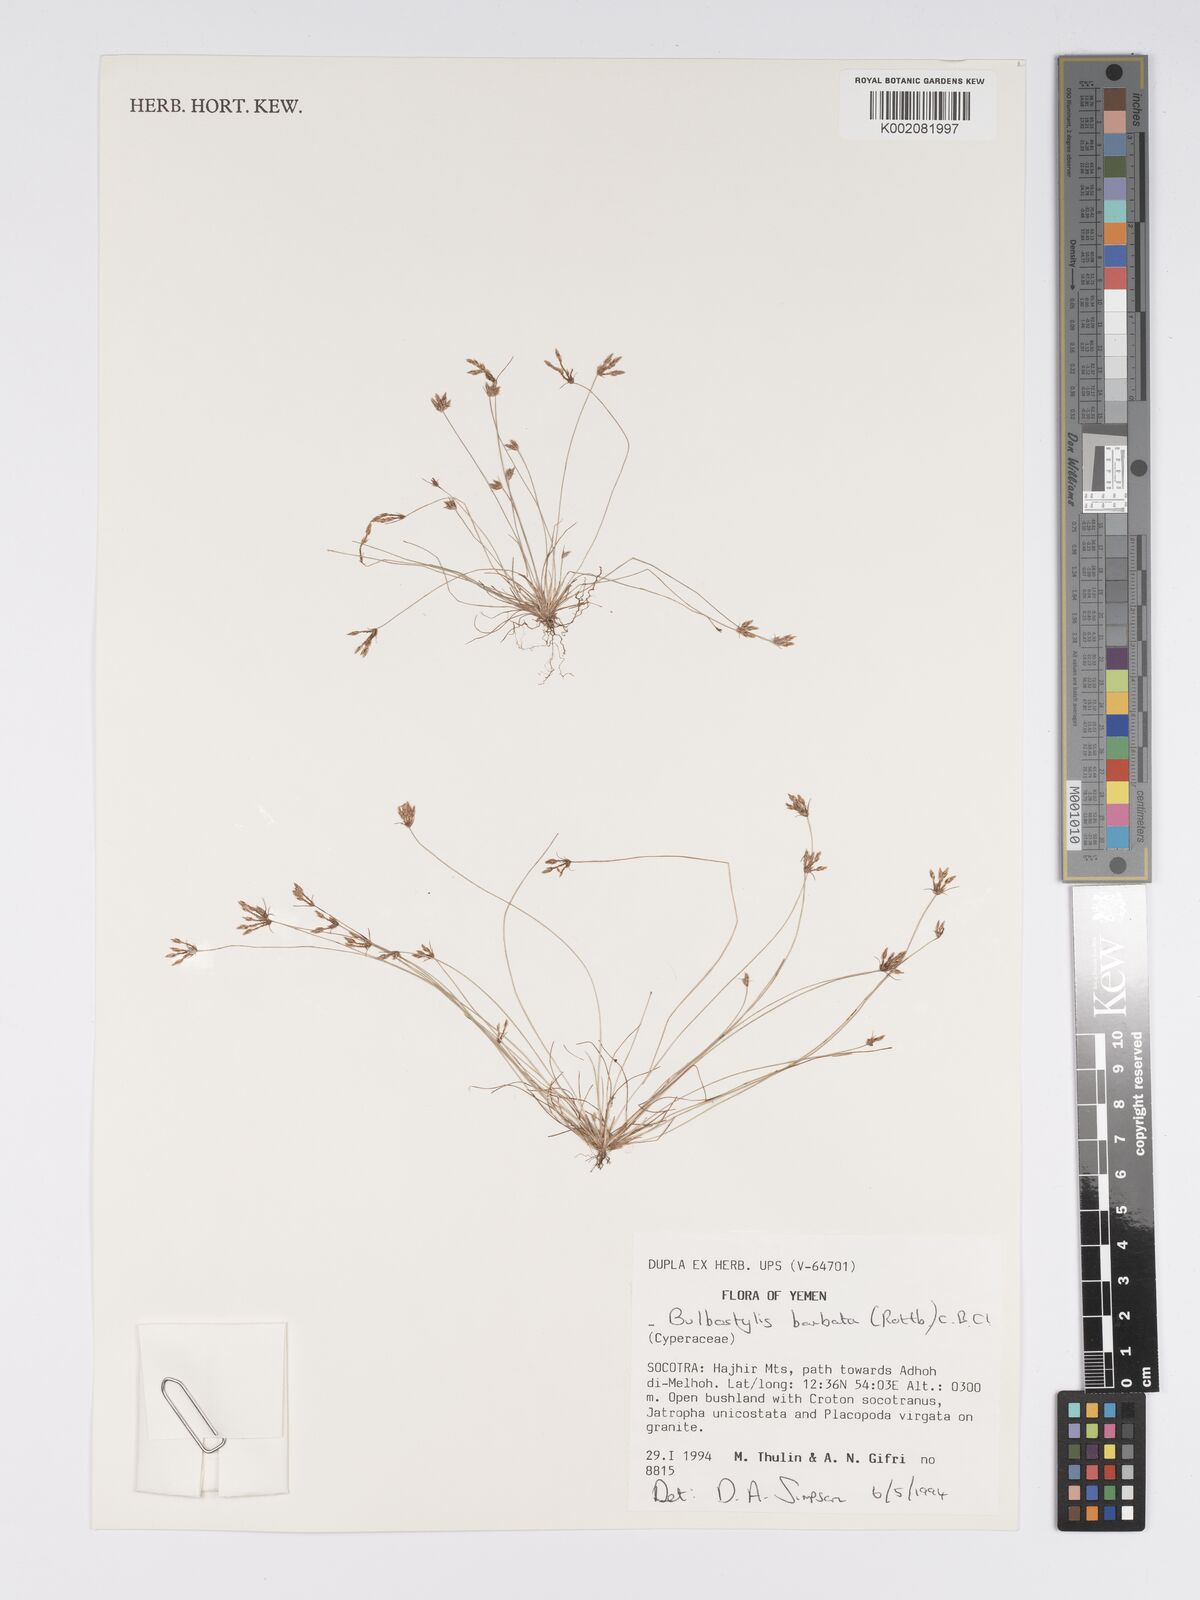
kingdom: Plantae
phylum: Tracheophyta
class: Liliopsida
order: Poales
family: Cyperaceae
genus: Bulbostylis
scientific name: Bulbostylis barbata
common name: Watergrass
